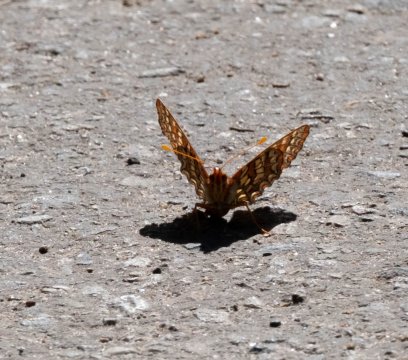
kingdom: Animalia
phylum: Arthropoda
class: Insecta
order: Lepidoptera
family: Nymphalidae
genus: Occidryas
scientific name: Occidryas chalcedona
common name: Chalcedon Checkerspot
